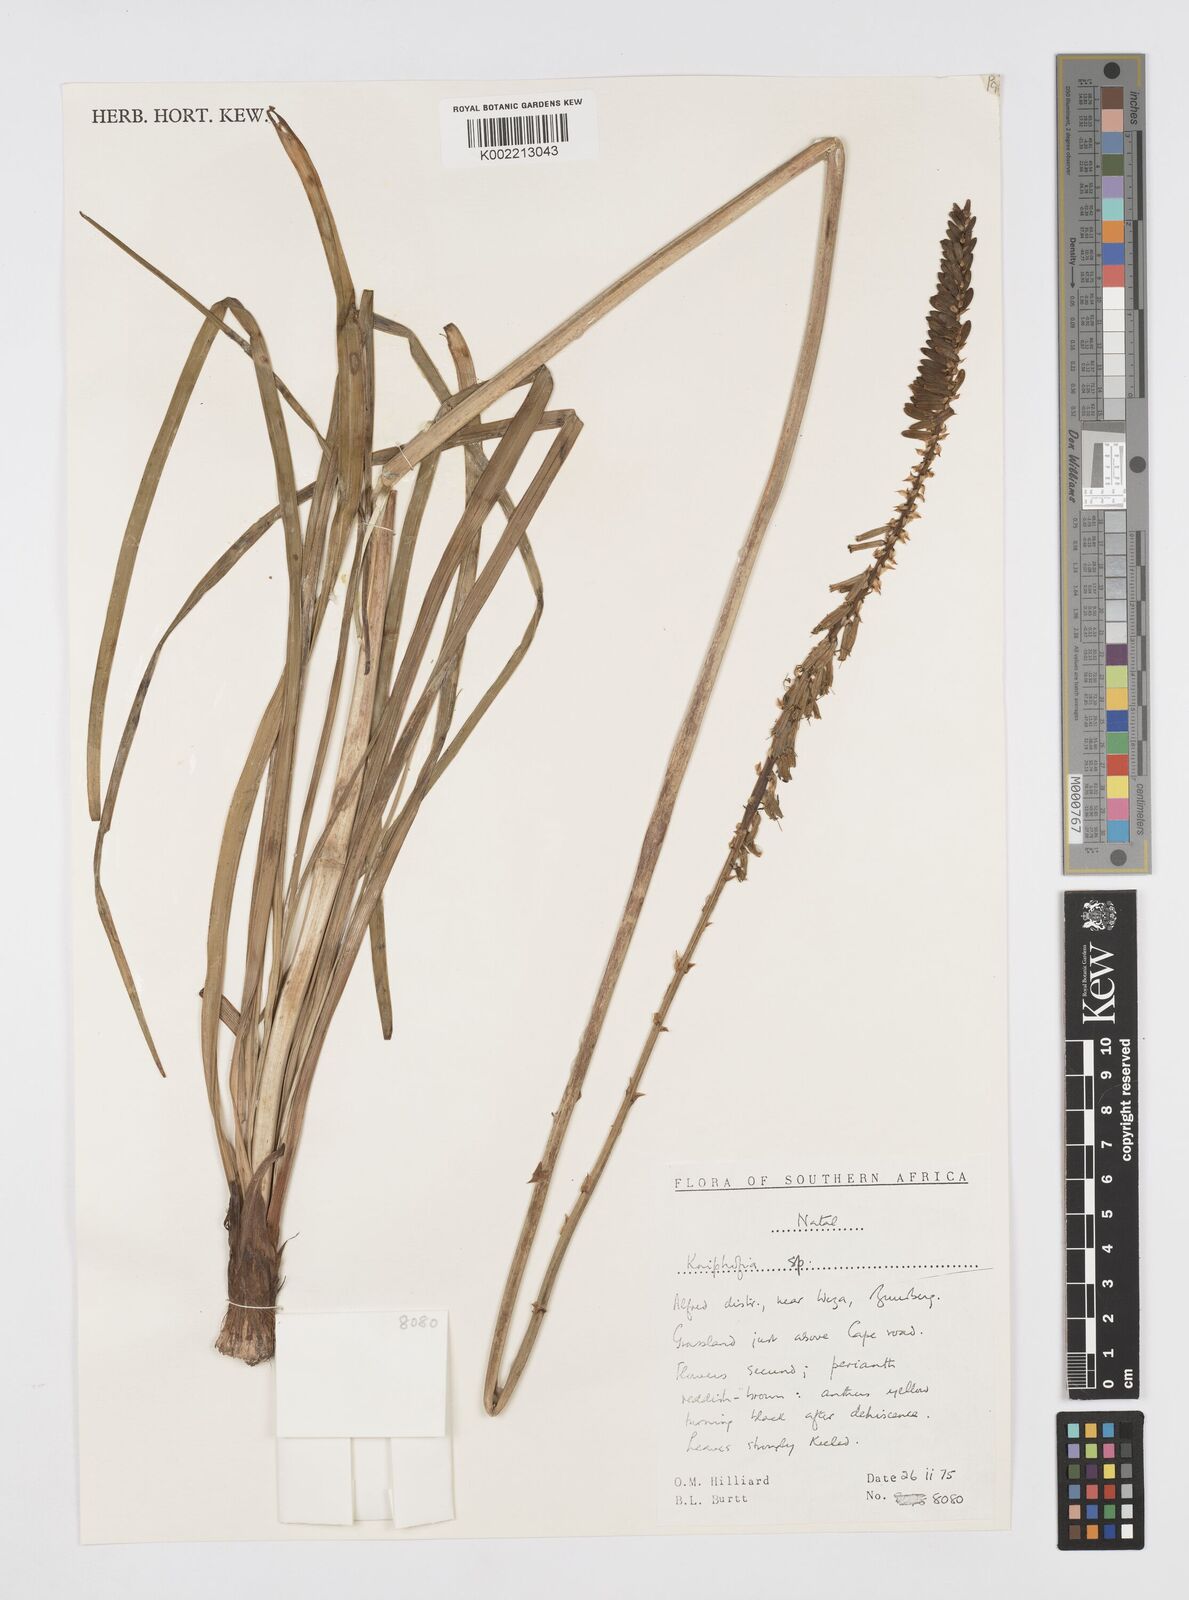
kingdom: Plantae
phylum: Tracheophyta
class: Liliopsida
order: Asparagales
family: Asphodelaceae
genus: Kniphofia
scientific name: Kniphofia
